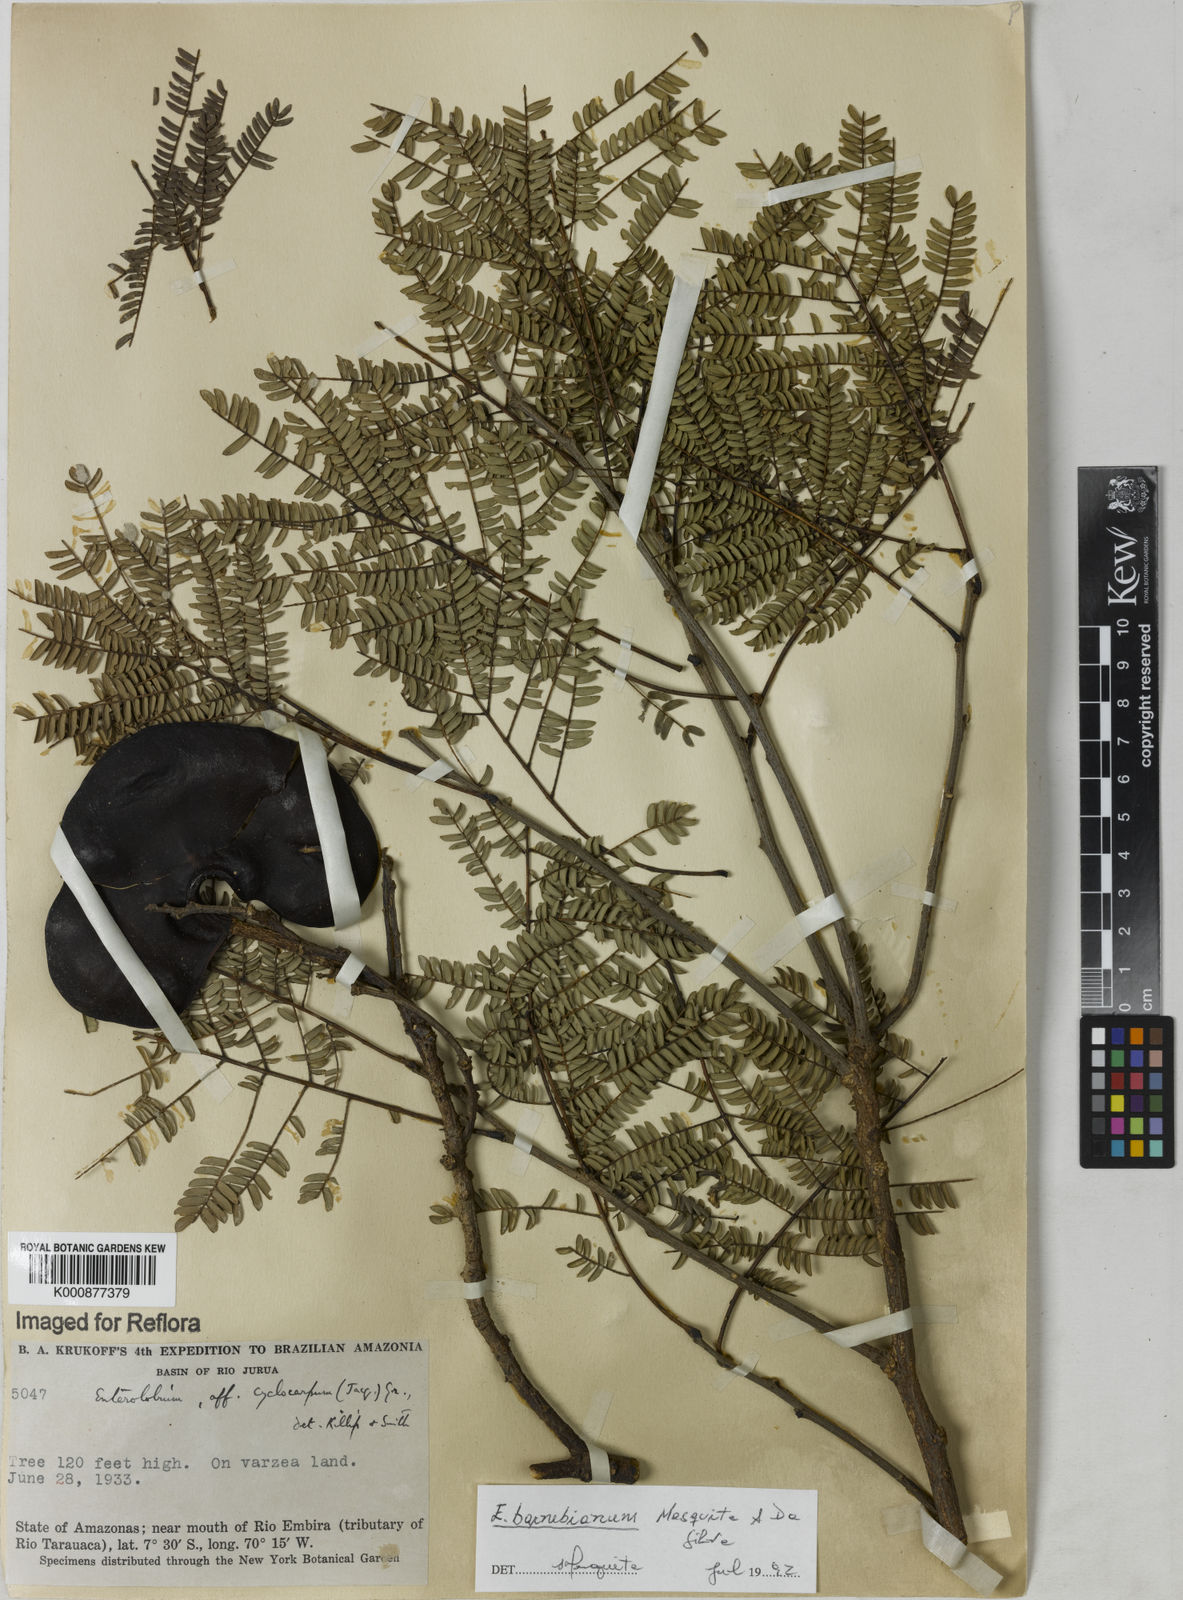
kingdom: Plantae
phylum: Tracheophyta
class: Magnoliopsida
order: Fabales
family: Fabaceae
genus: Enterolobium
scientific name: Enterolobium cyclocarpum
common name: Ear tree
